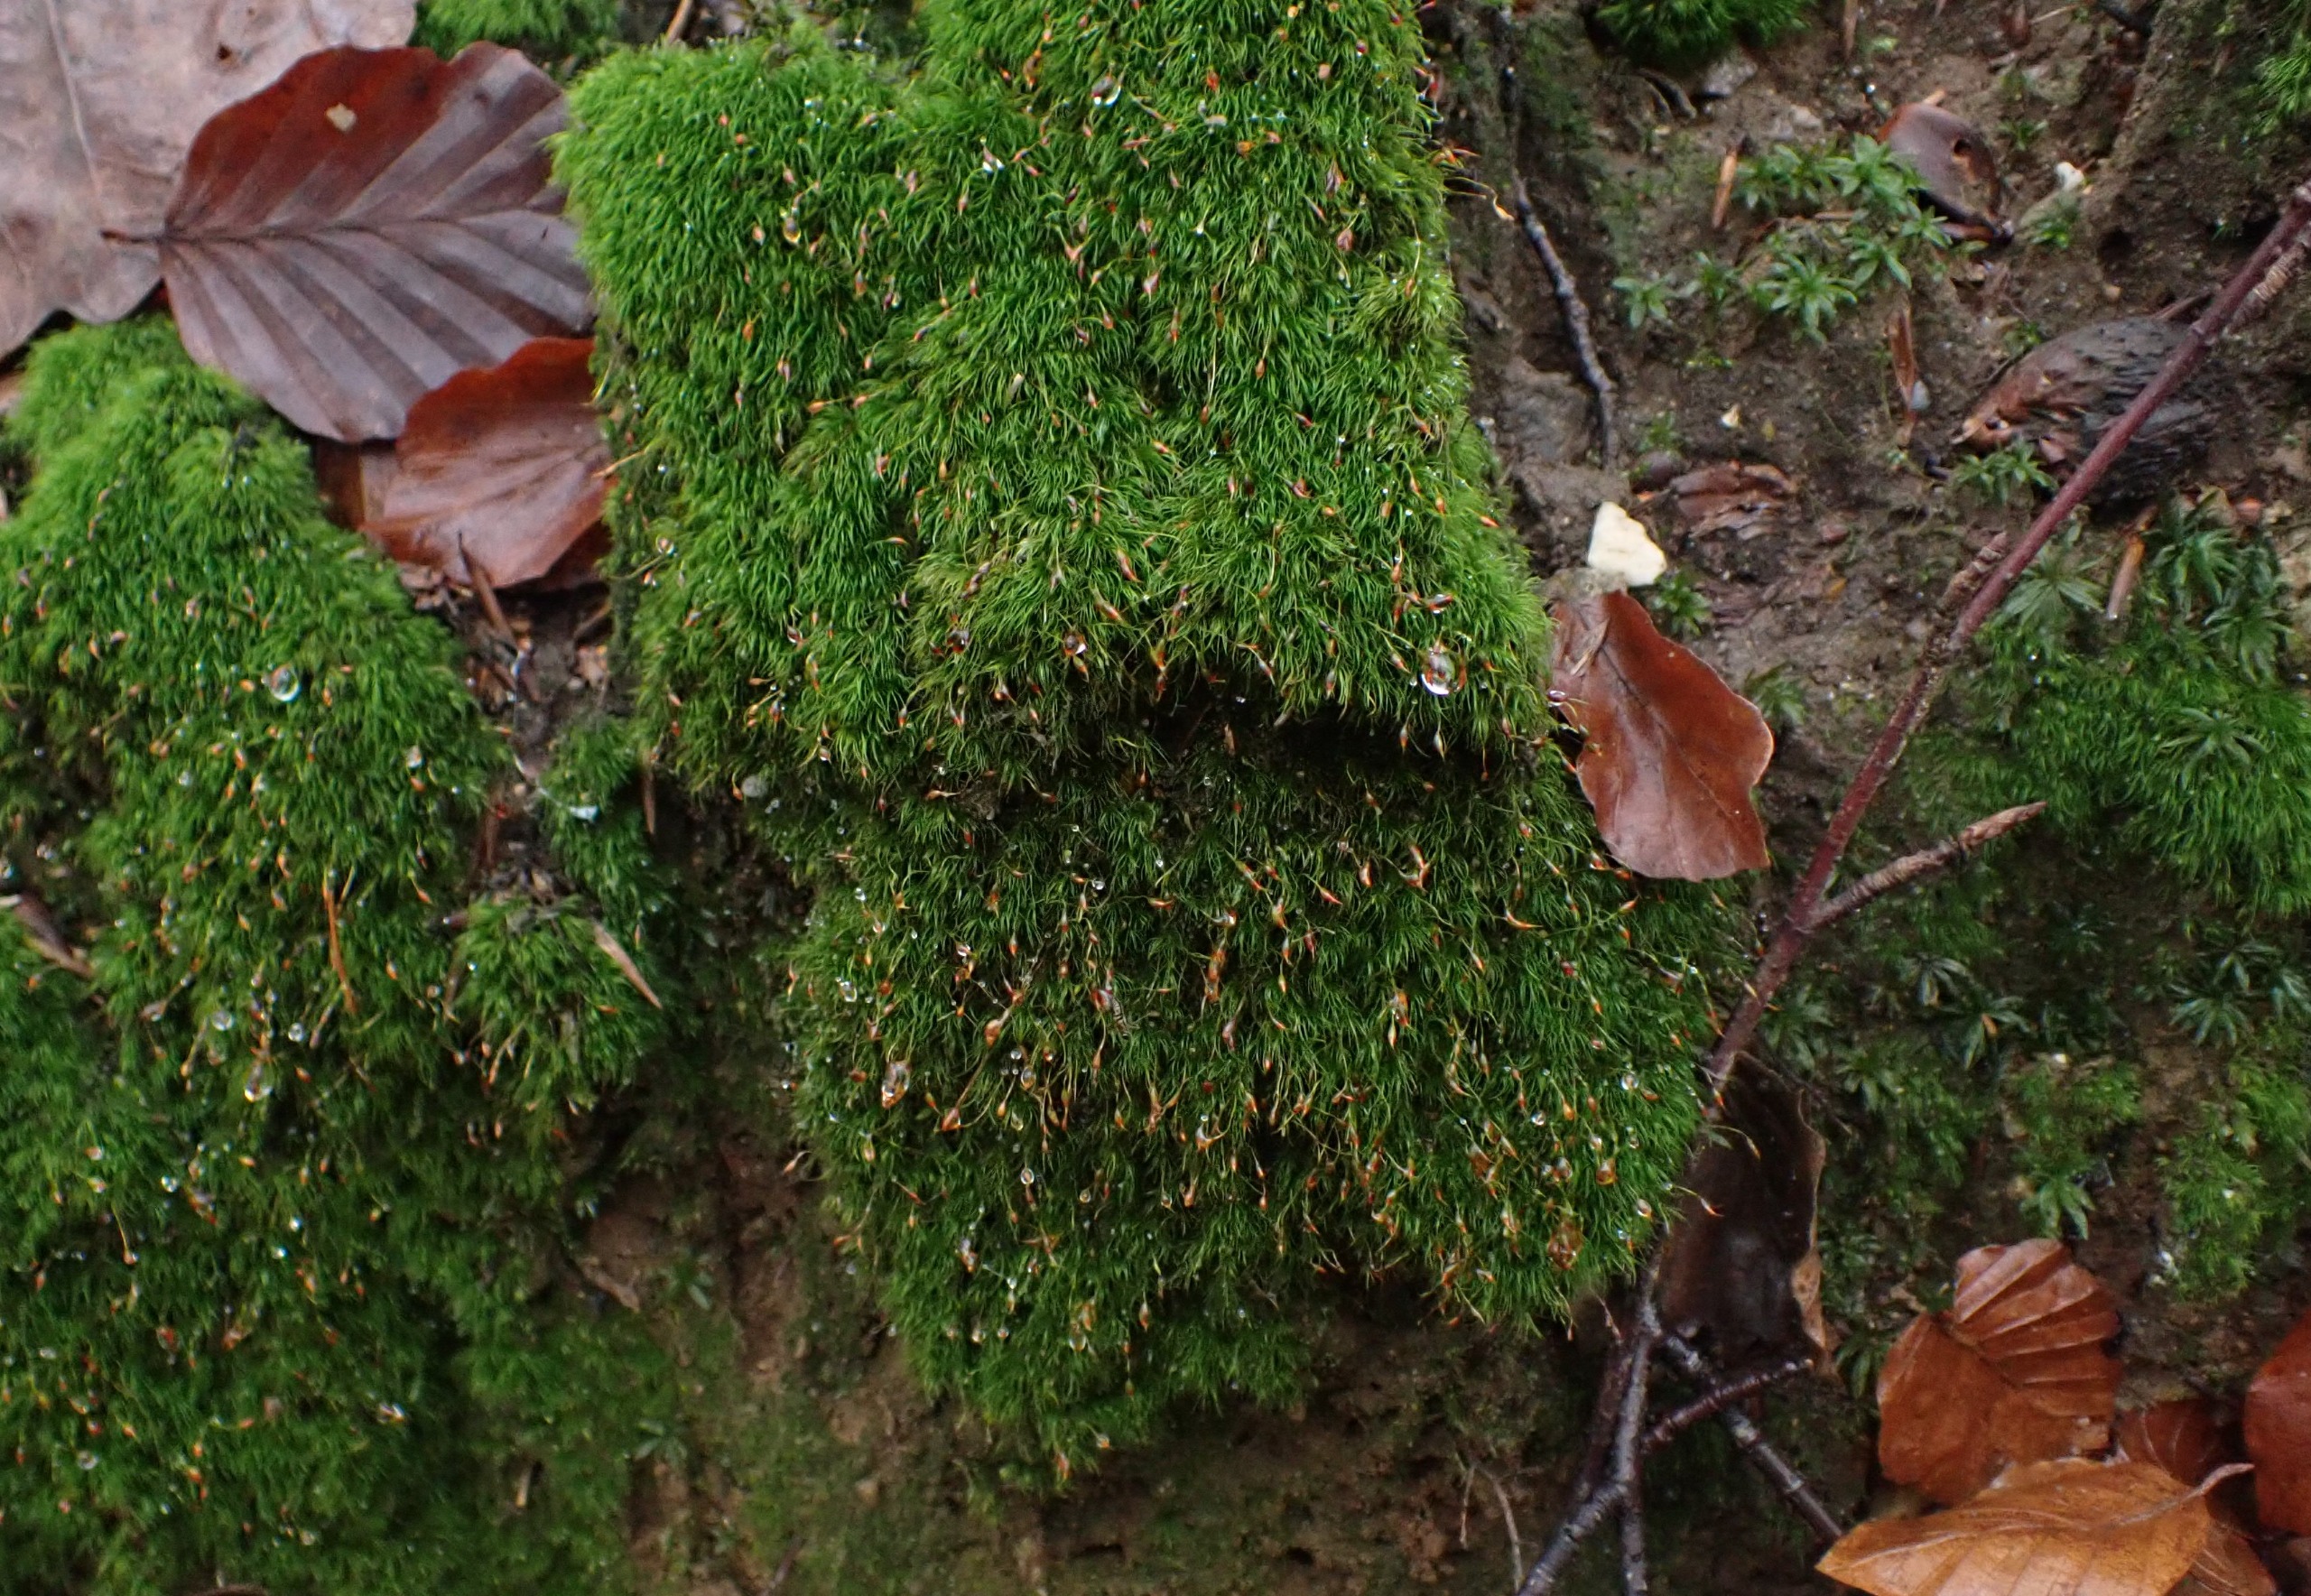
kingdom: Plantae
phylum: Bryophyta
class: Bryopsida
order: Dicranales
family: Dicranellaceae
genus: Dicranella
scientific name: Dicranella heteromalla
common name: Almindelig fløjlsmos
